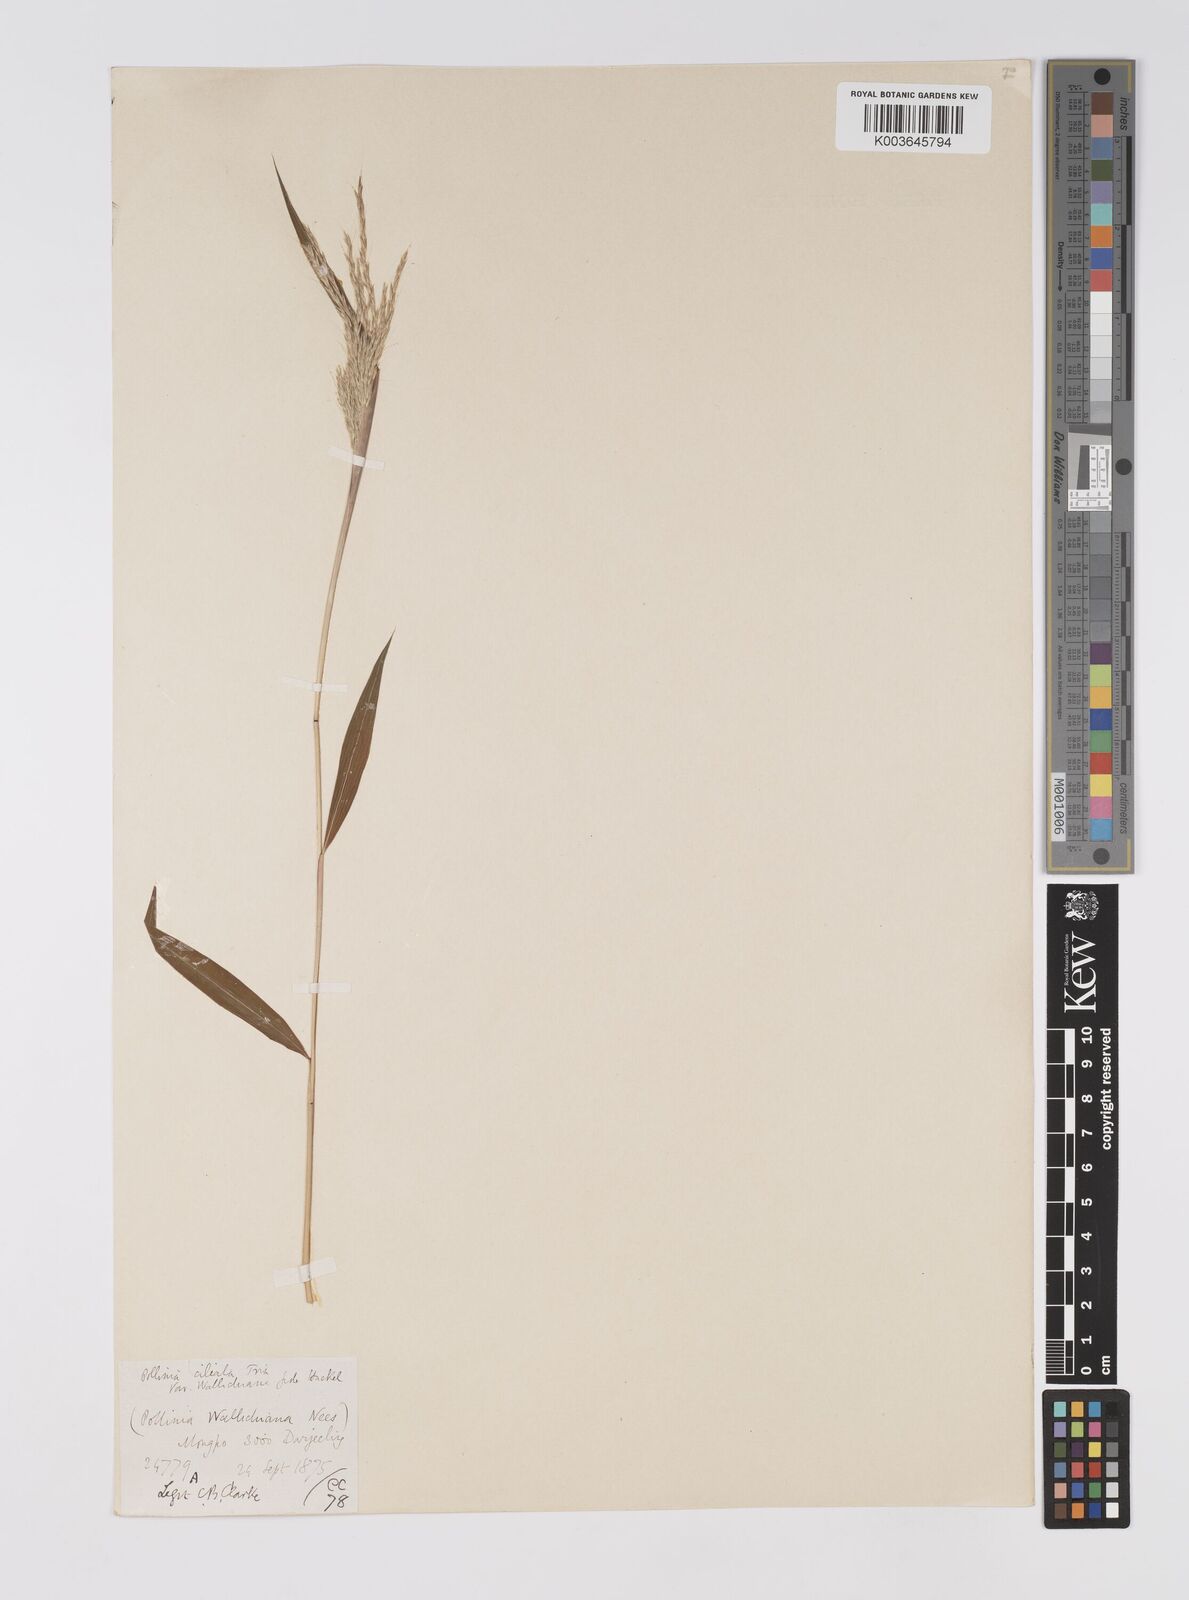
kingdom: Plantae
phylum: Tracheophyta
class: Liliopsida
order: Poales
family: Poaceae
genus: Microstegium
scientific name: Microstegium fasciculatum
